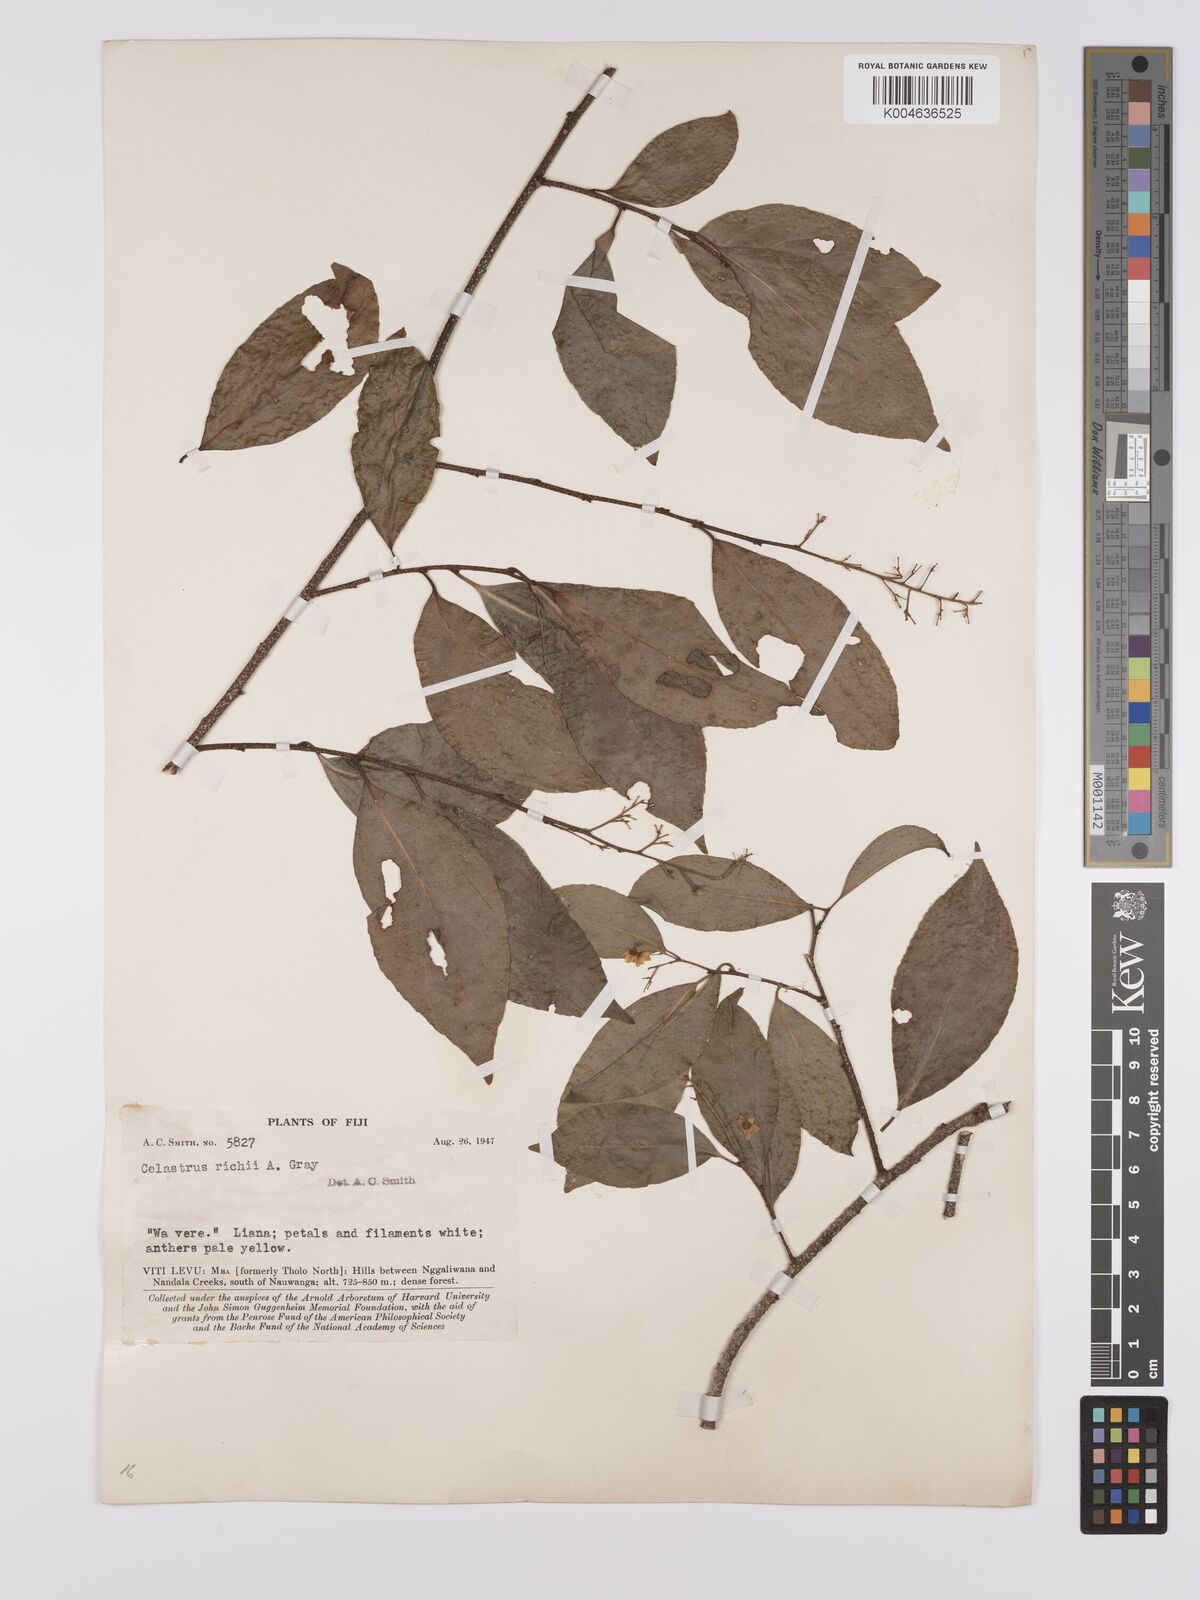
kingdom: Plantae
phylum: Tracheophyta
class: Magnoliopsida
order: Celastrales
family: Celastraceae
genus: Celastrus
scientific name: Celastrus richii
